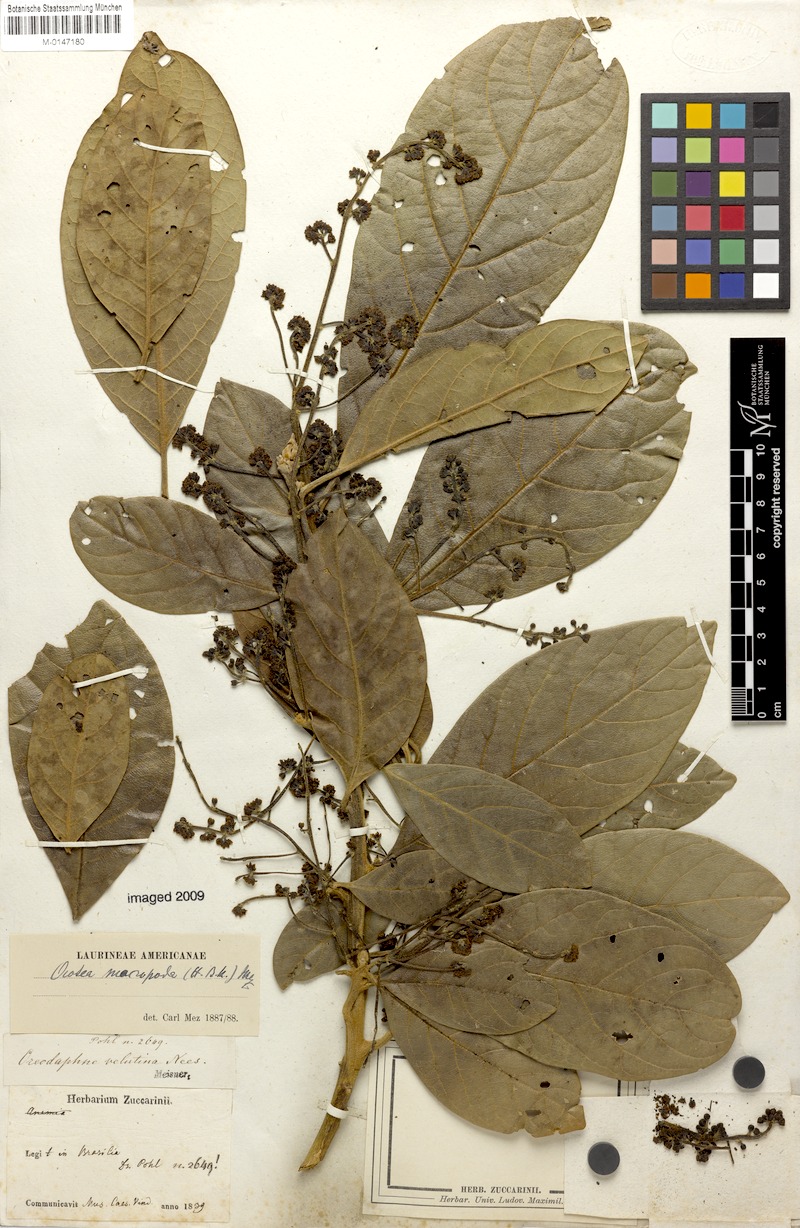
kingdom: Plantae
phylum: Tracheophyta
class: Magnoliopsida
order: Laurales
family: Lauraceae
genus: Andea
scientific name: Andea velutina
